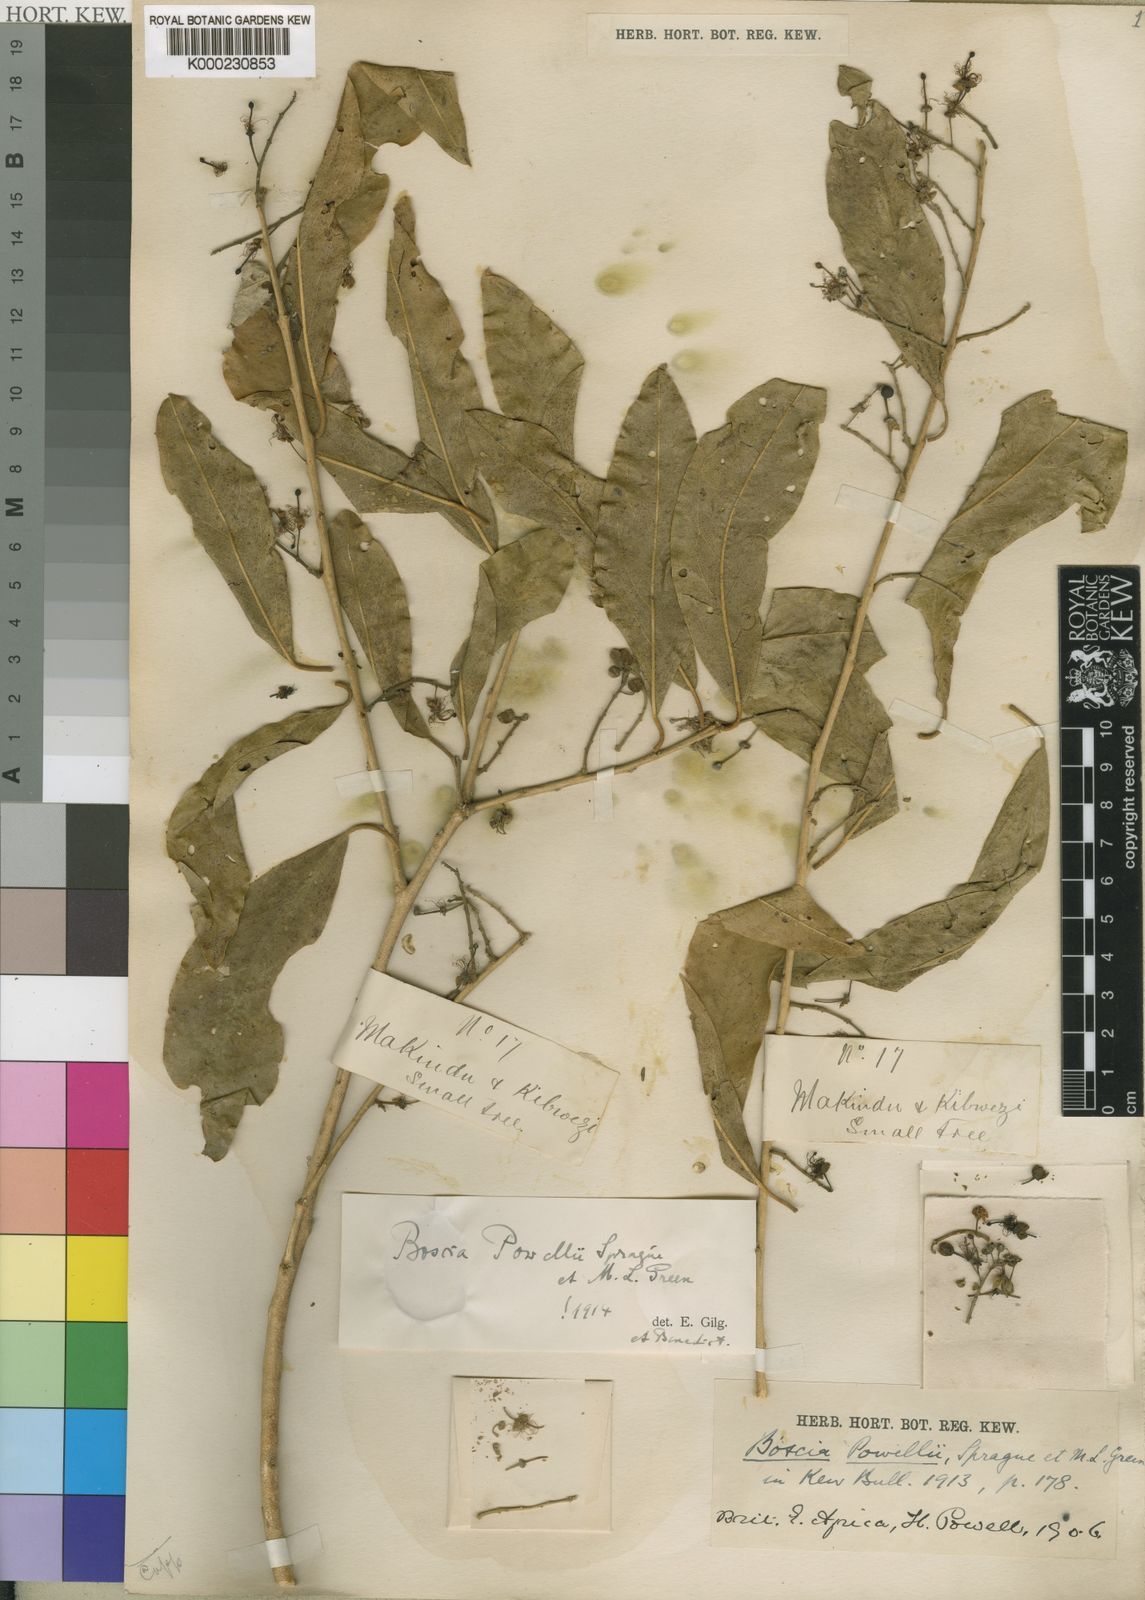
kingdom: Plantae
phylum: Tracheophyta
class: Magnoliopsida
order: Brassicales
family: Capparaceae
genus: Boscia
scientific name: Boscia salicifolia
